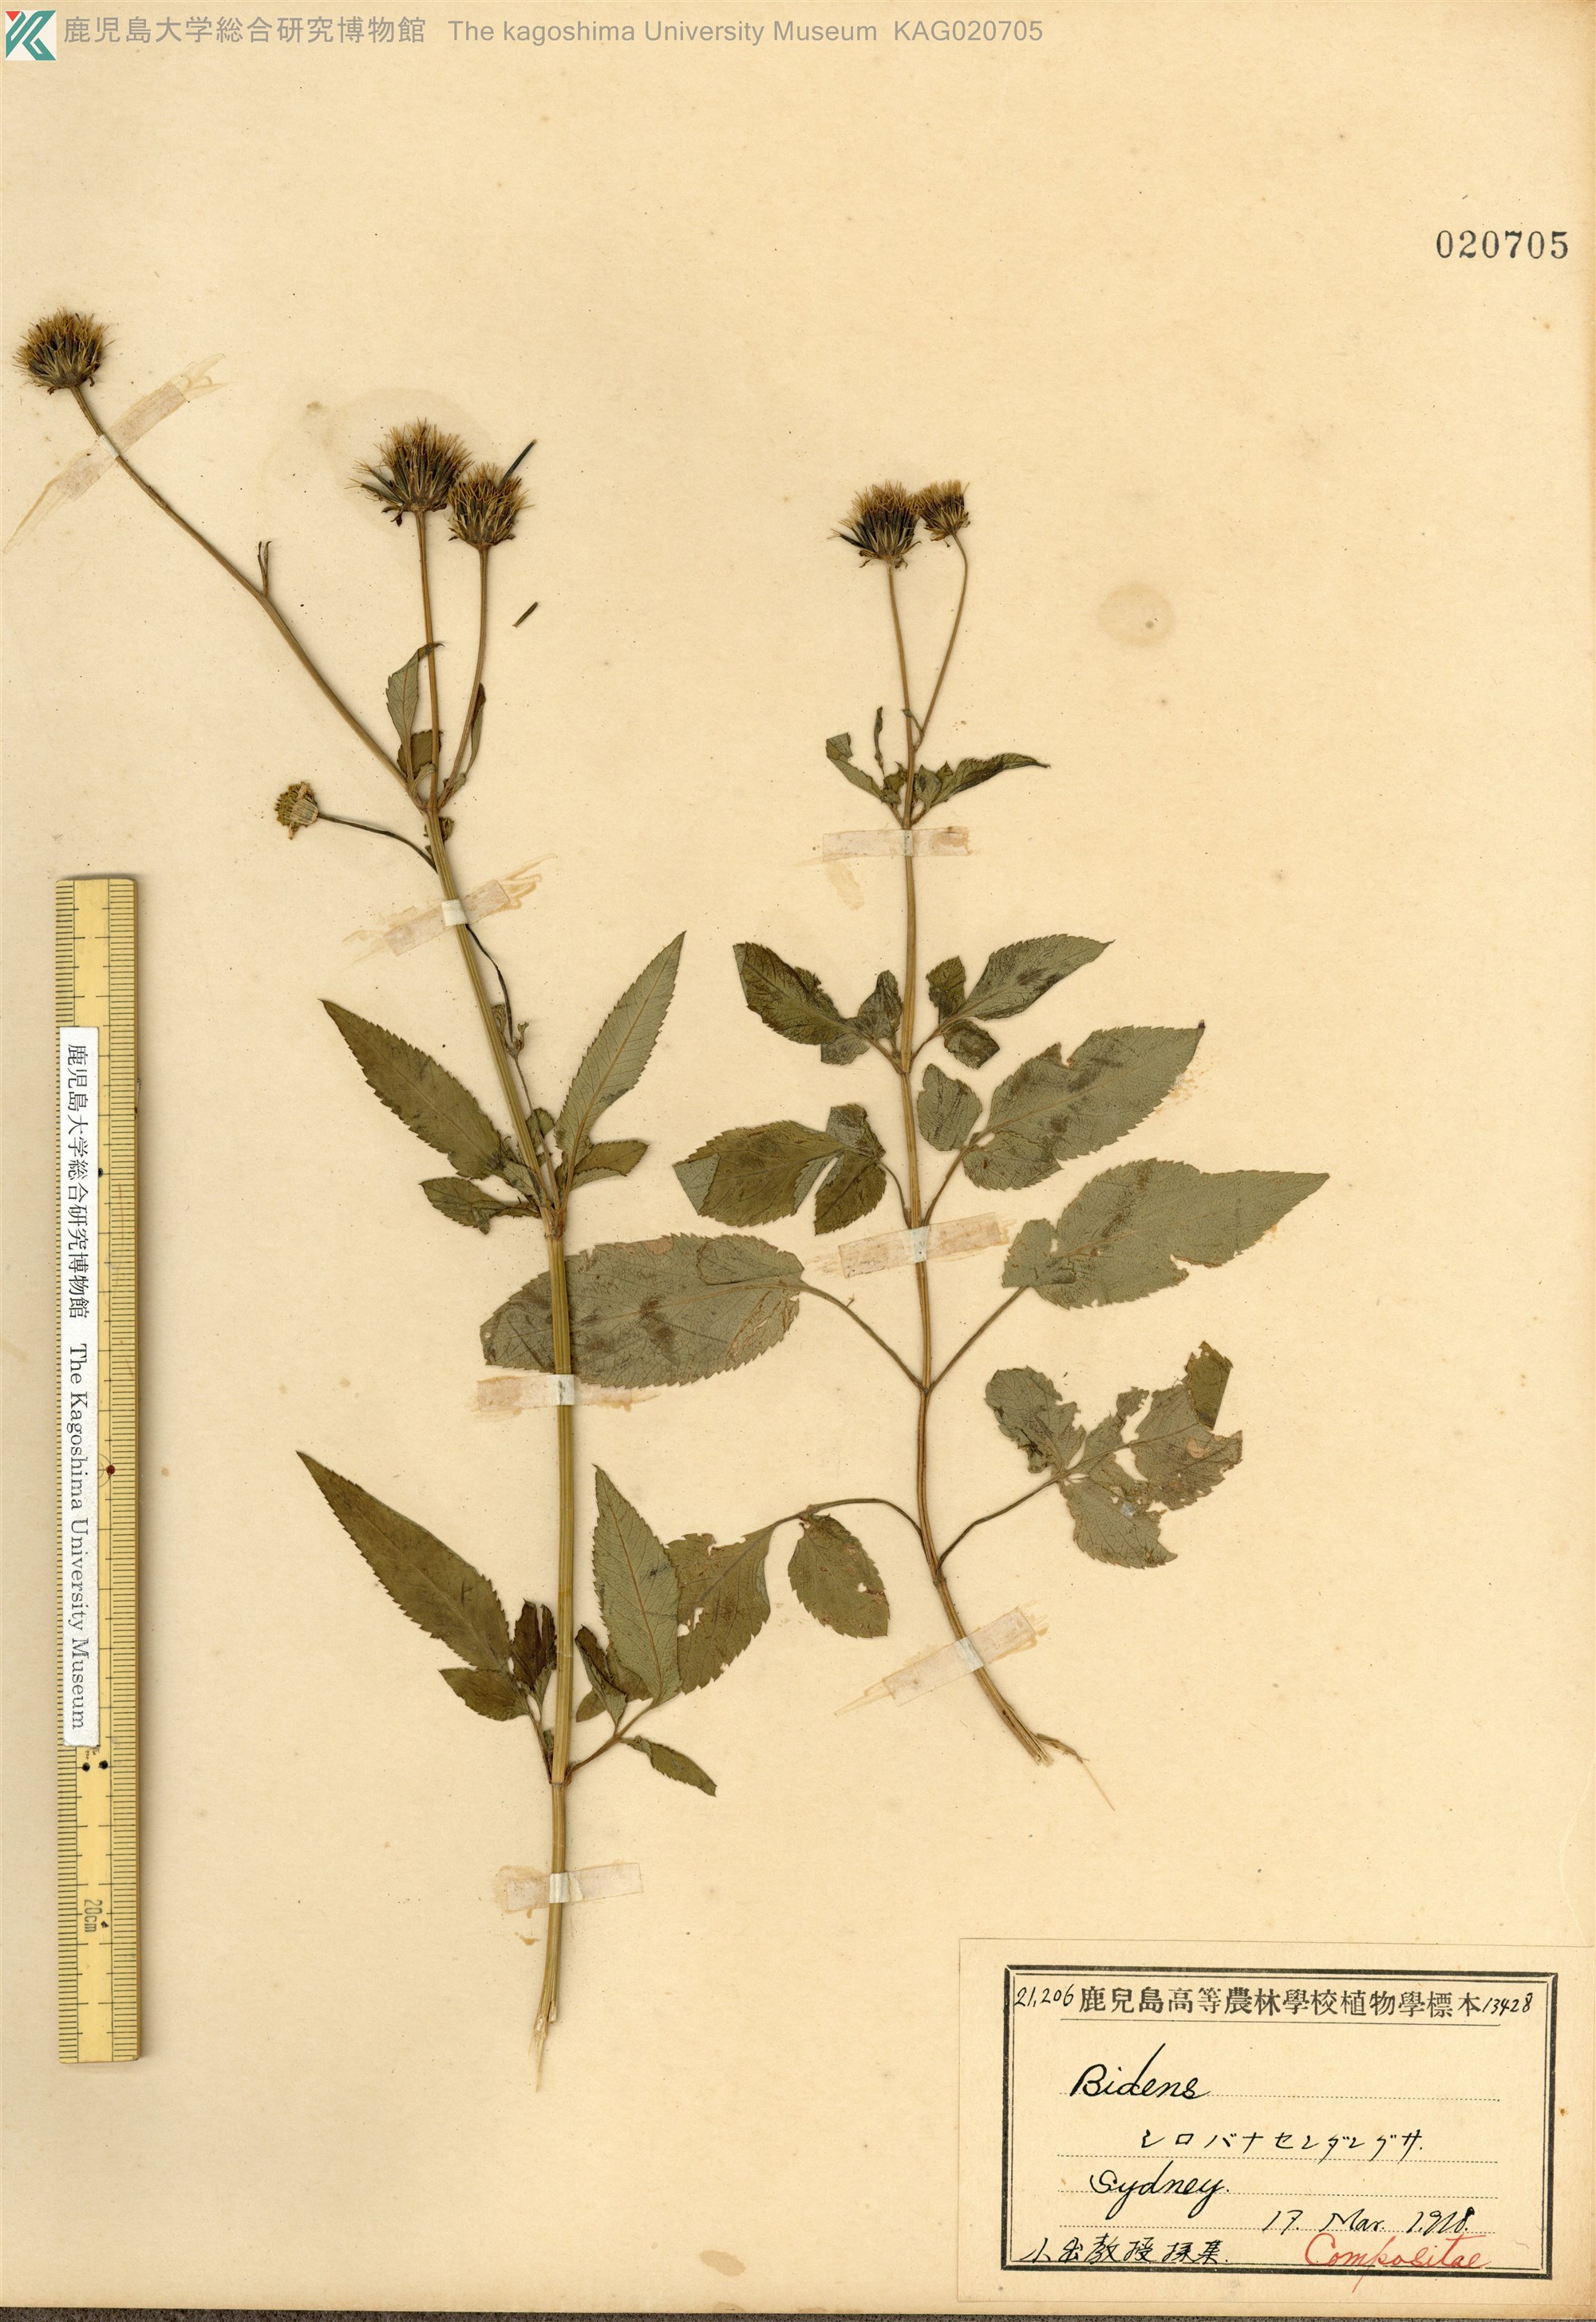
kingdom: Plantae
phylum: Tracheophyta
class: Magnoliopsida
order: Asterales
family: Asteraceae
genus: Bidens
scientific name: Bidens pilosa
